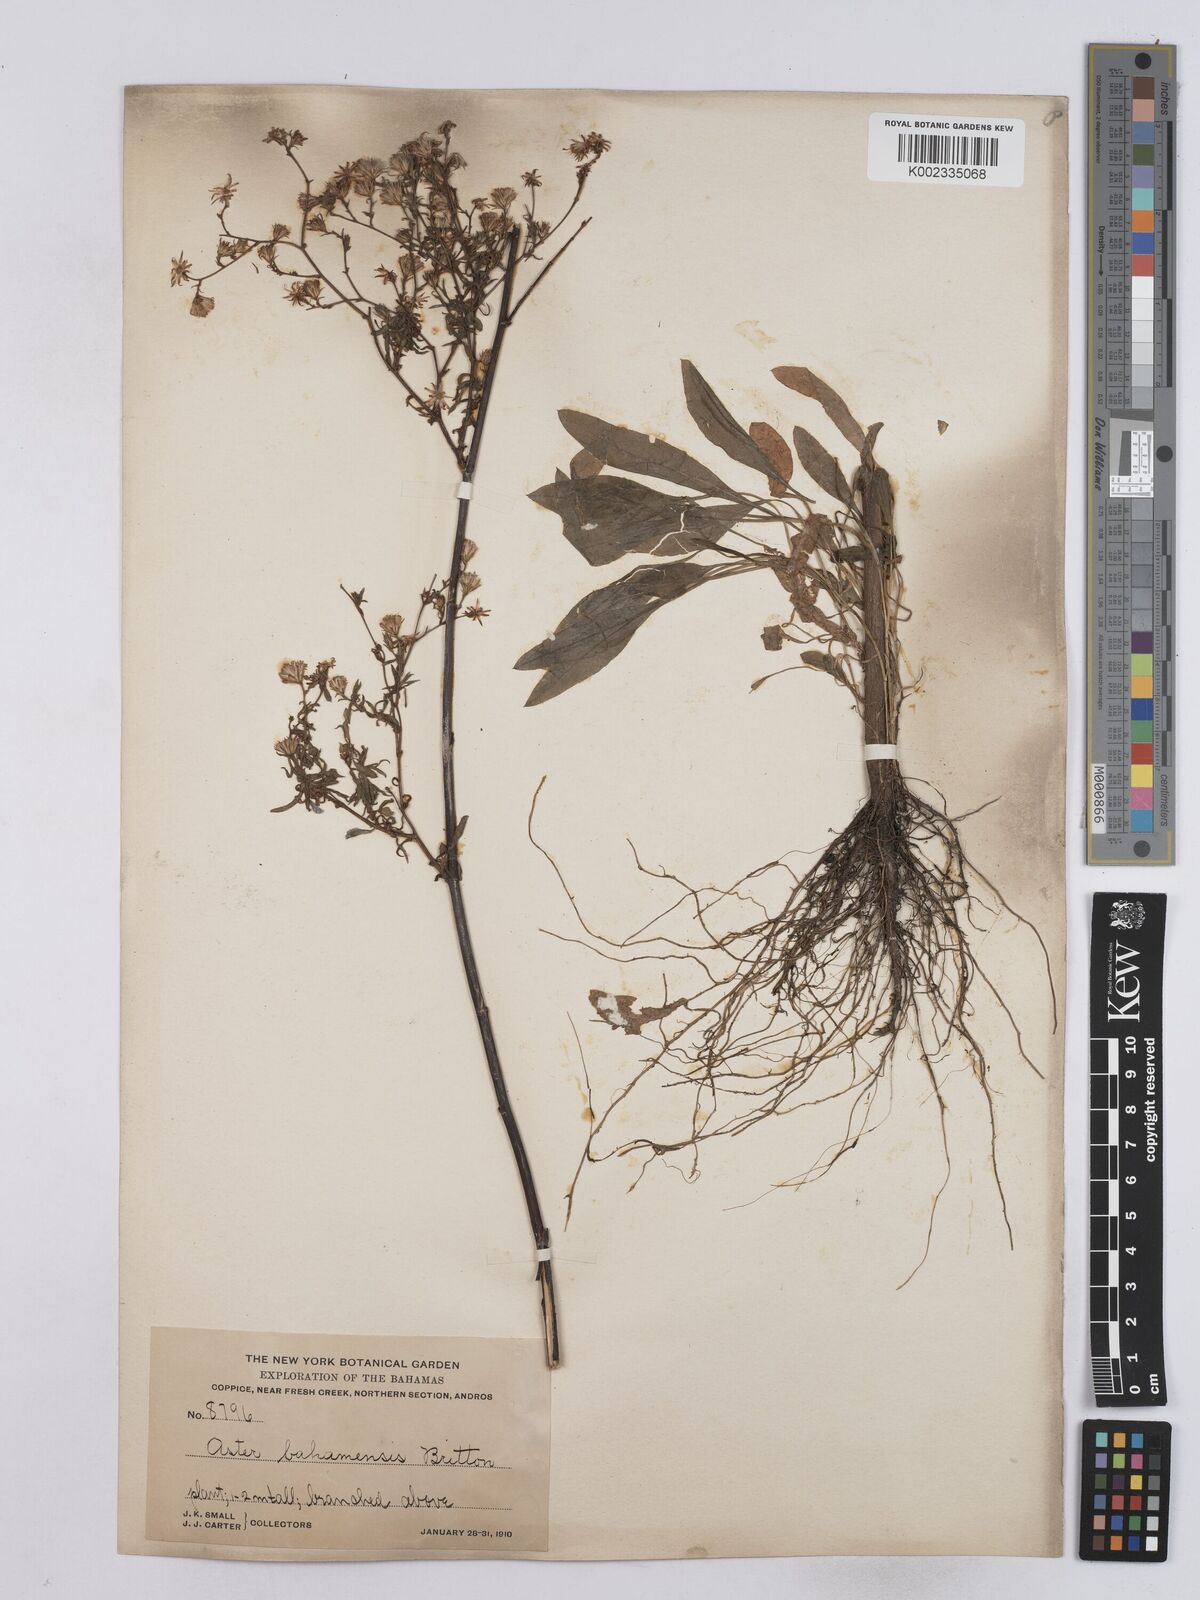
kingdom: Plantae
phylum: Tracheophyta
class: Magnoliopsida
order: Asterales
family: Asteraceae
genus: Symphyotrichum
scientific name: Symphyotrichum subulatum
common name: Annual saltmarsh aster
